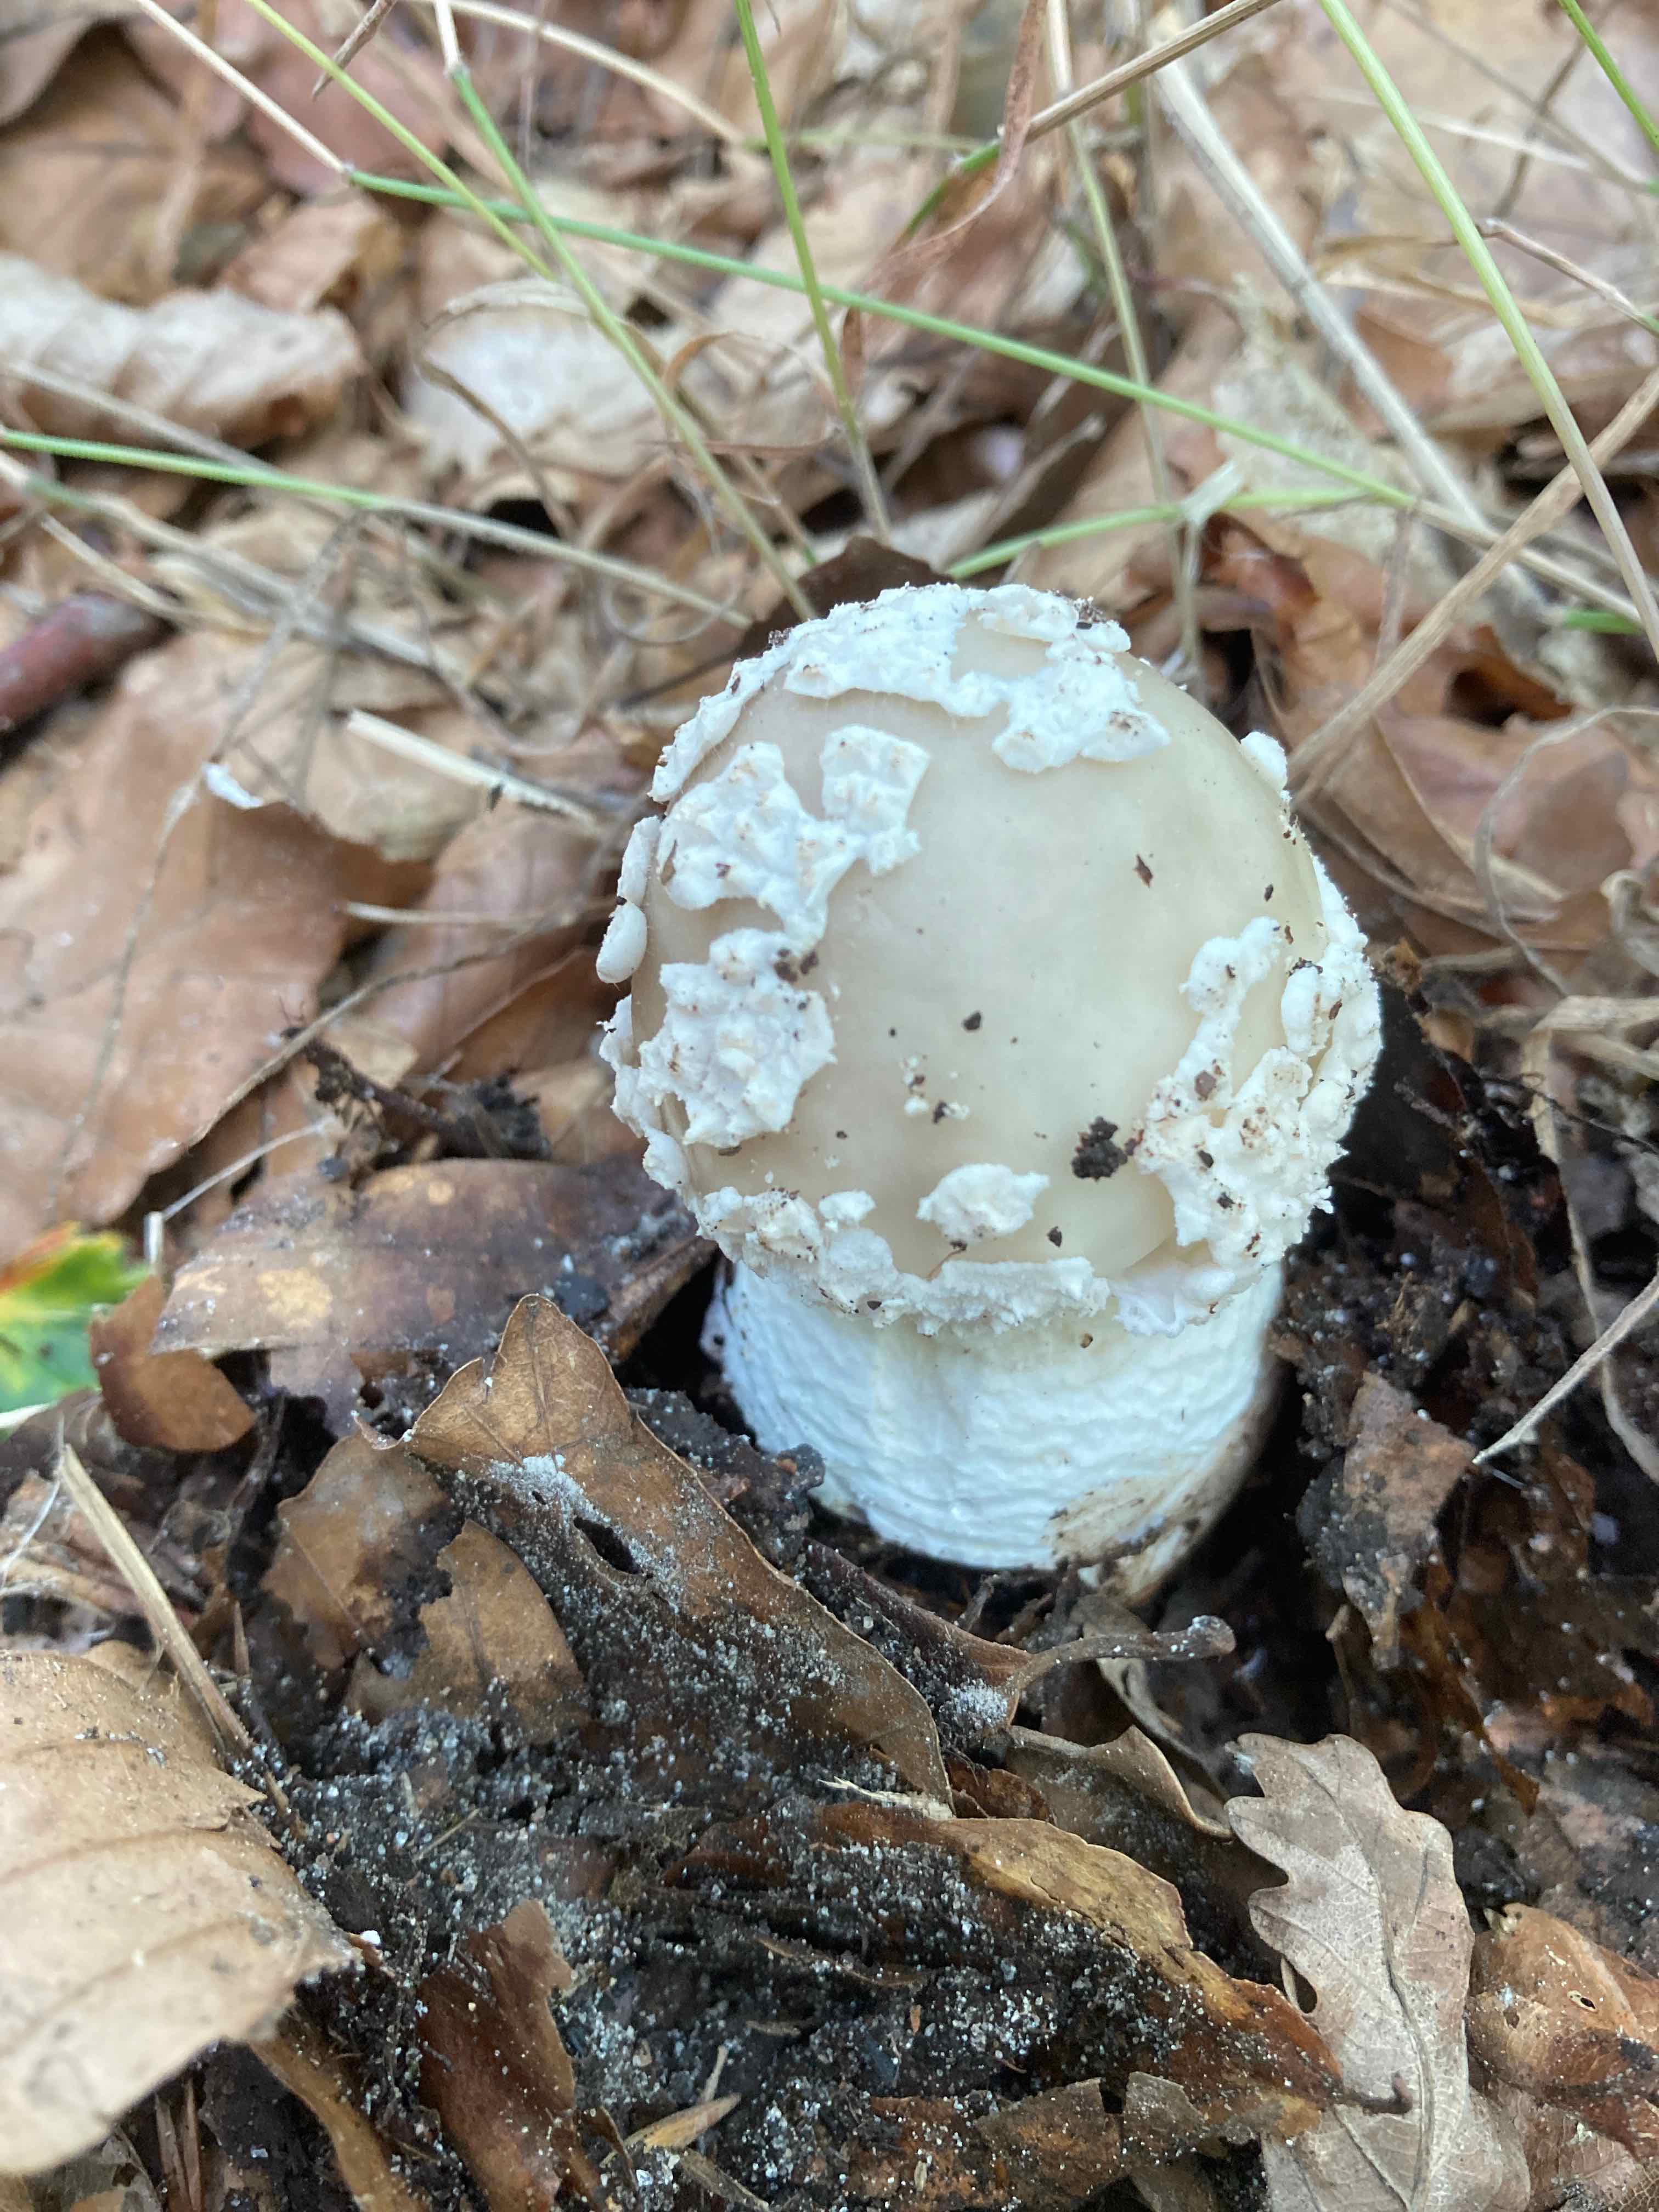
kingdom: Fungi
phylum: Basidiomycota
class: Agaricomycetes
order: Agaricales
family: Amanitaceae
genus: Amanita
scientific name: Amanita
